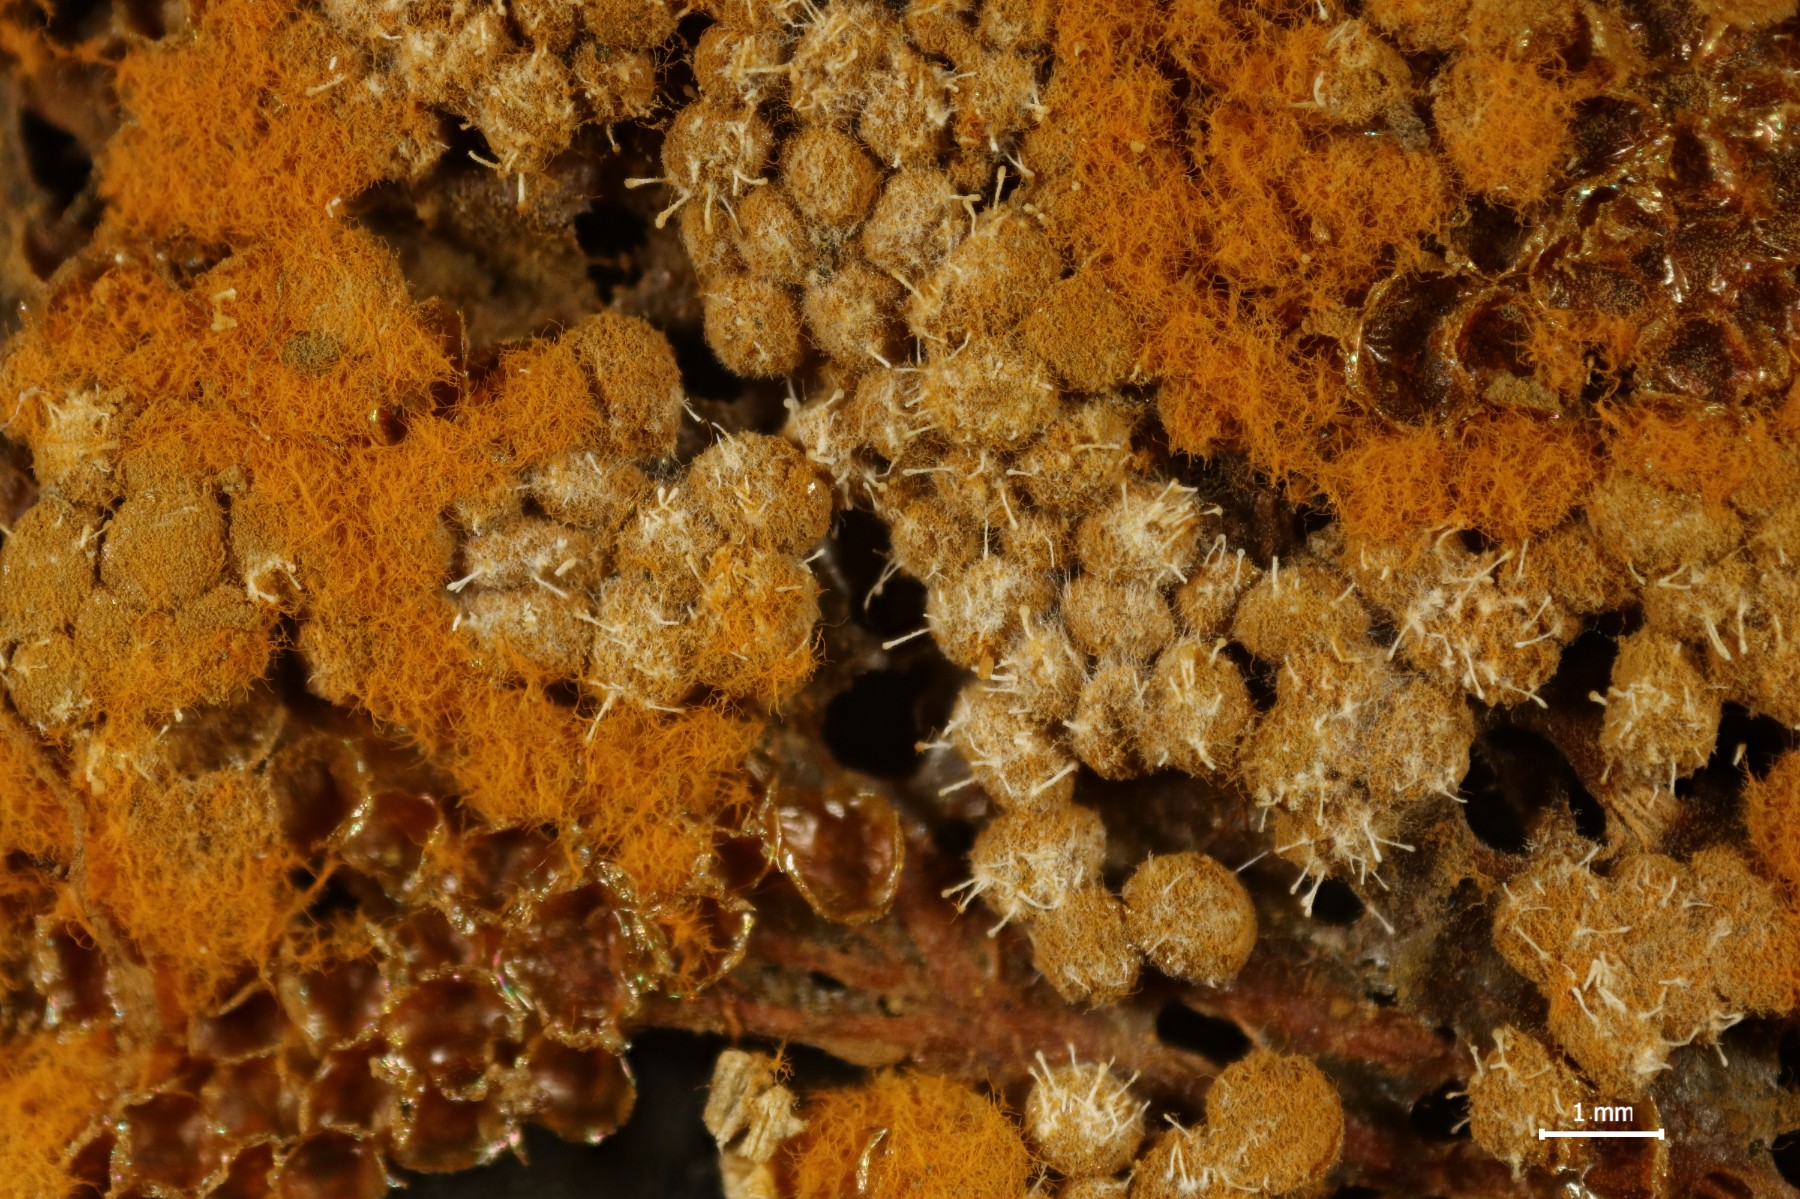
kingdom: Fungi
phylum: Ascomycota
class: Sordariomycetes
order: Hypocreales
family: Ophiocordycipitaceae
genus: Polycephalomyces
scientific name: Polycephalomyces tomentosus
